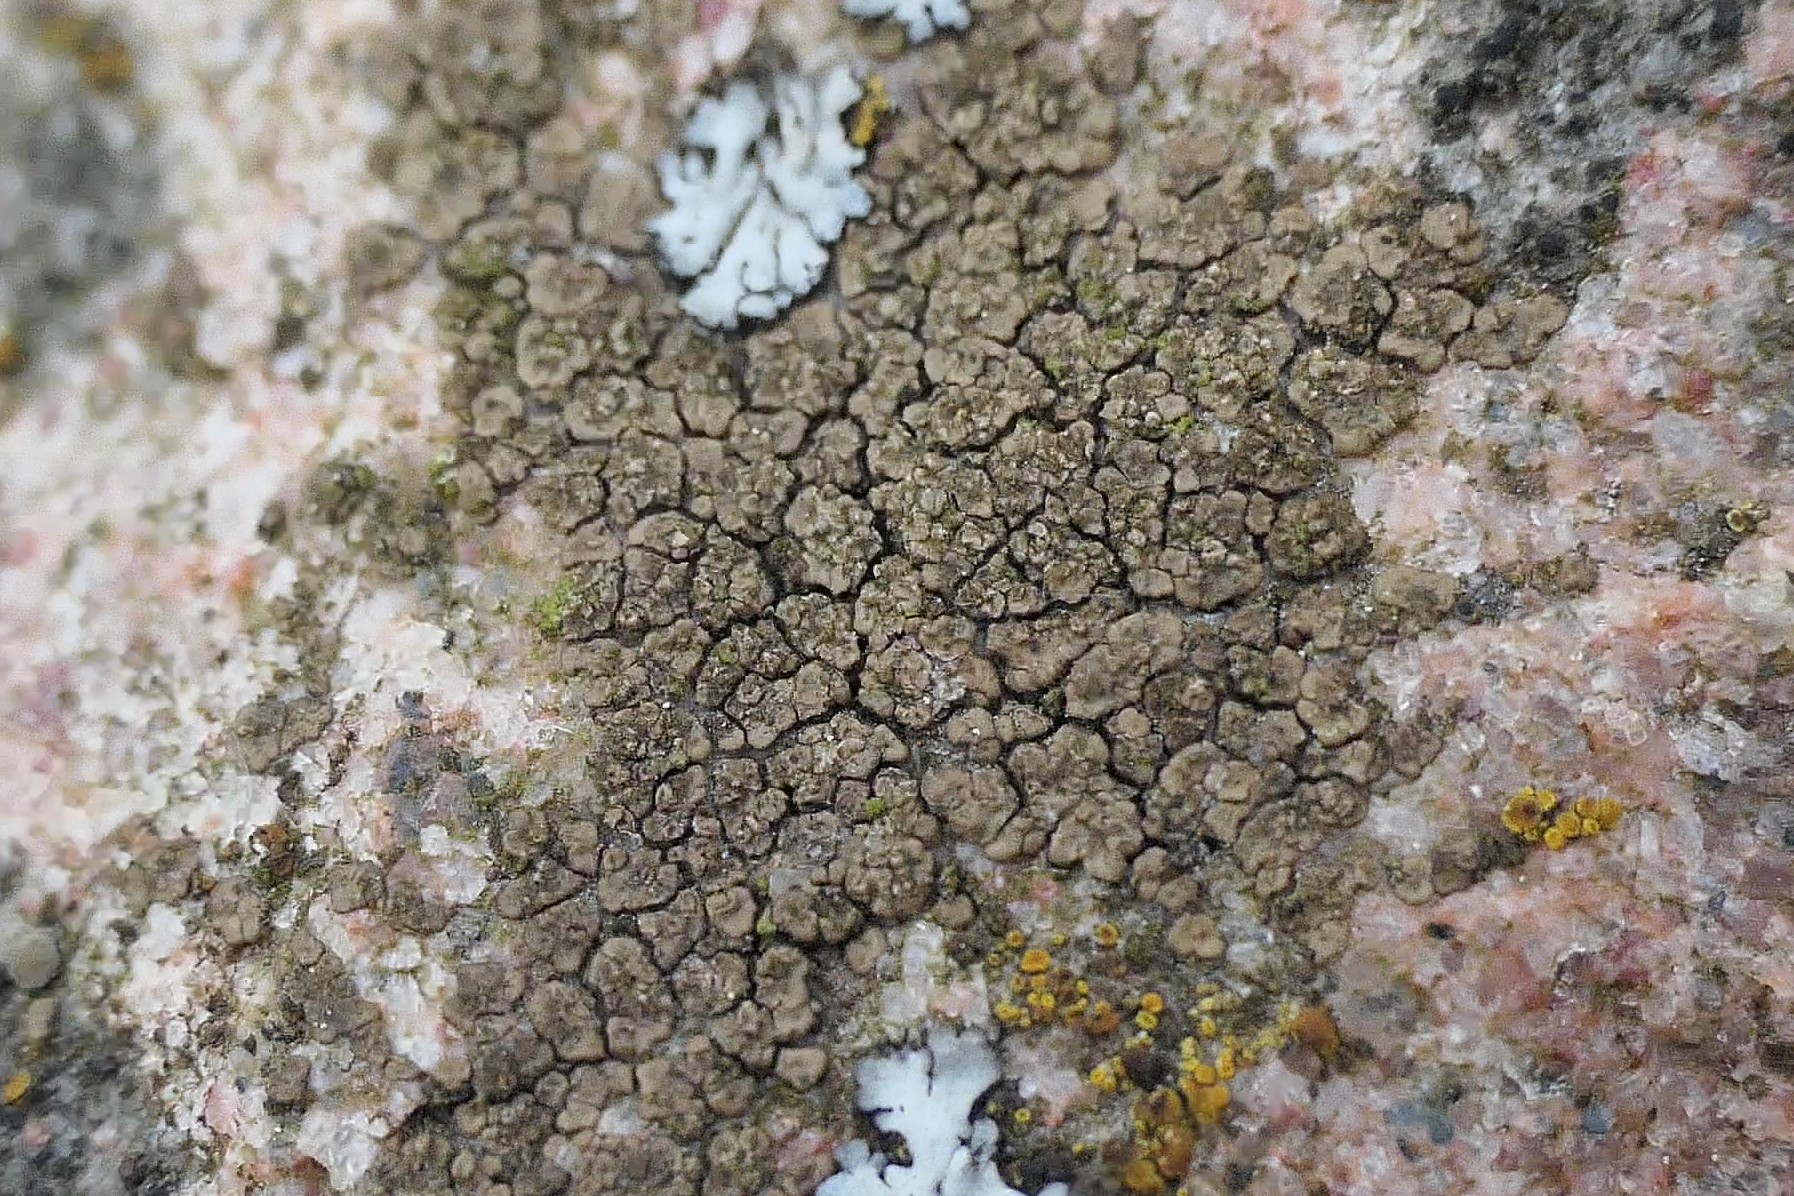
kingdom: Fungi
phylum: Ascomycota
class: Lecanoromycetes
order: Acarosporales
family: Acarosporaceae
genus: Acarospora
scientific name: Acarospora fuscata
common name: brun småsporelav
